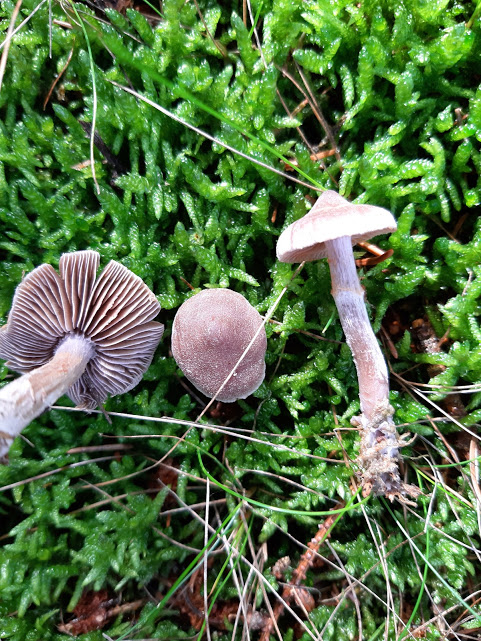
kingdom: Fungi
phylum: Basidiomycota
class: Agaricomycetes
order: Agaricales
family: Cortinariaceae
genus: Cortinarius
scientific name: Cortinarius
